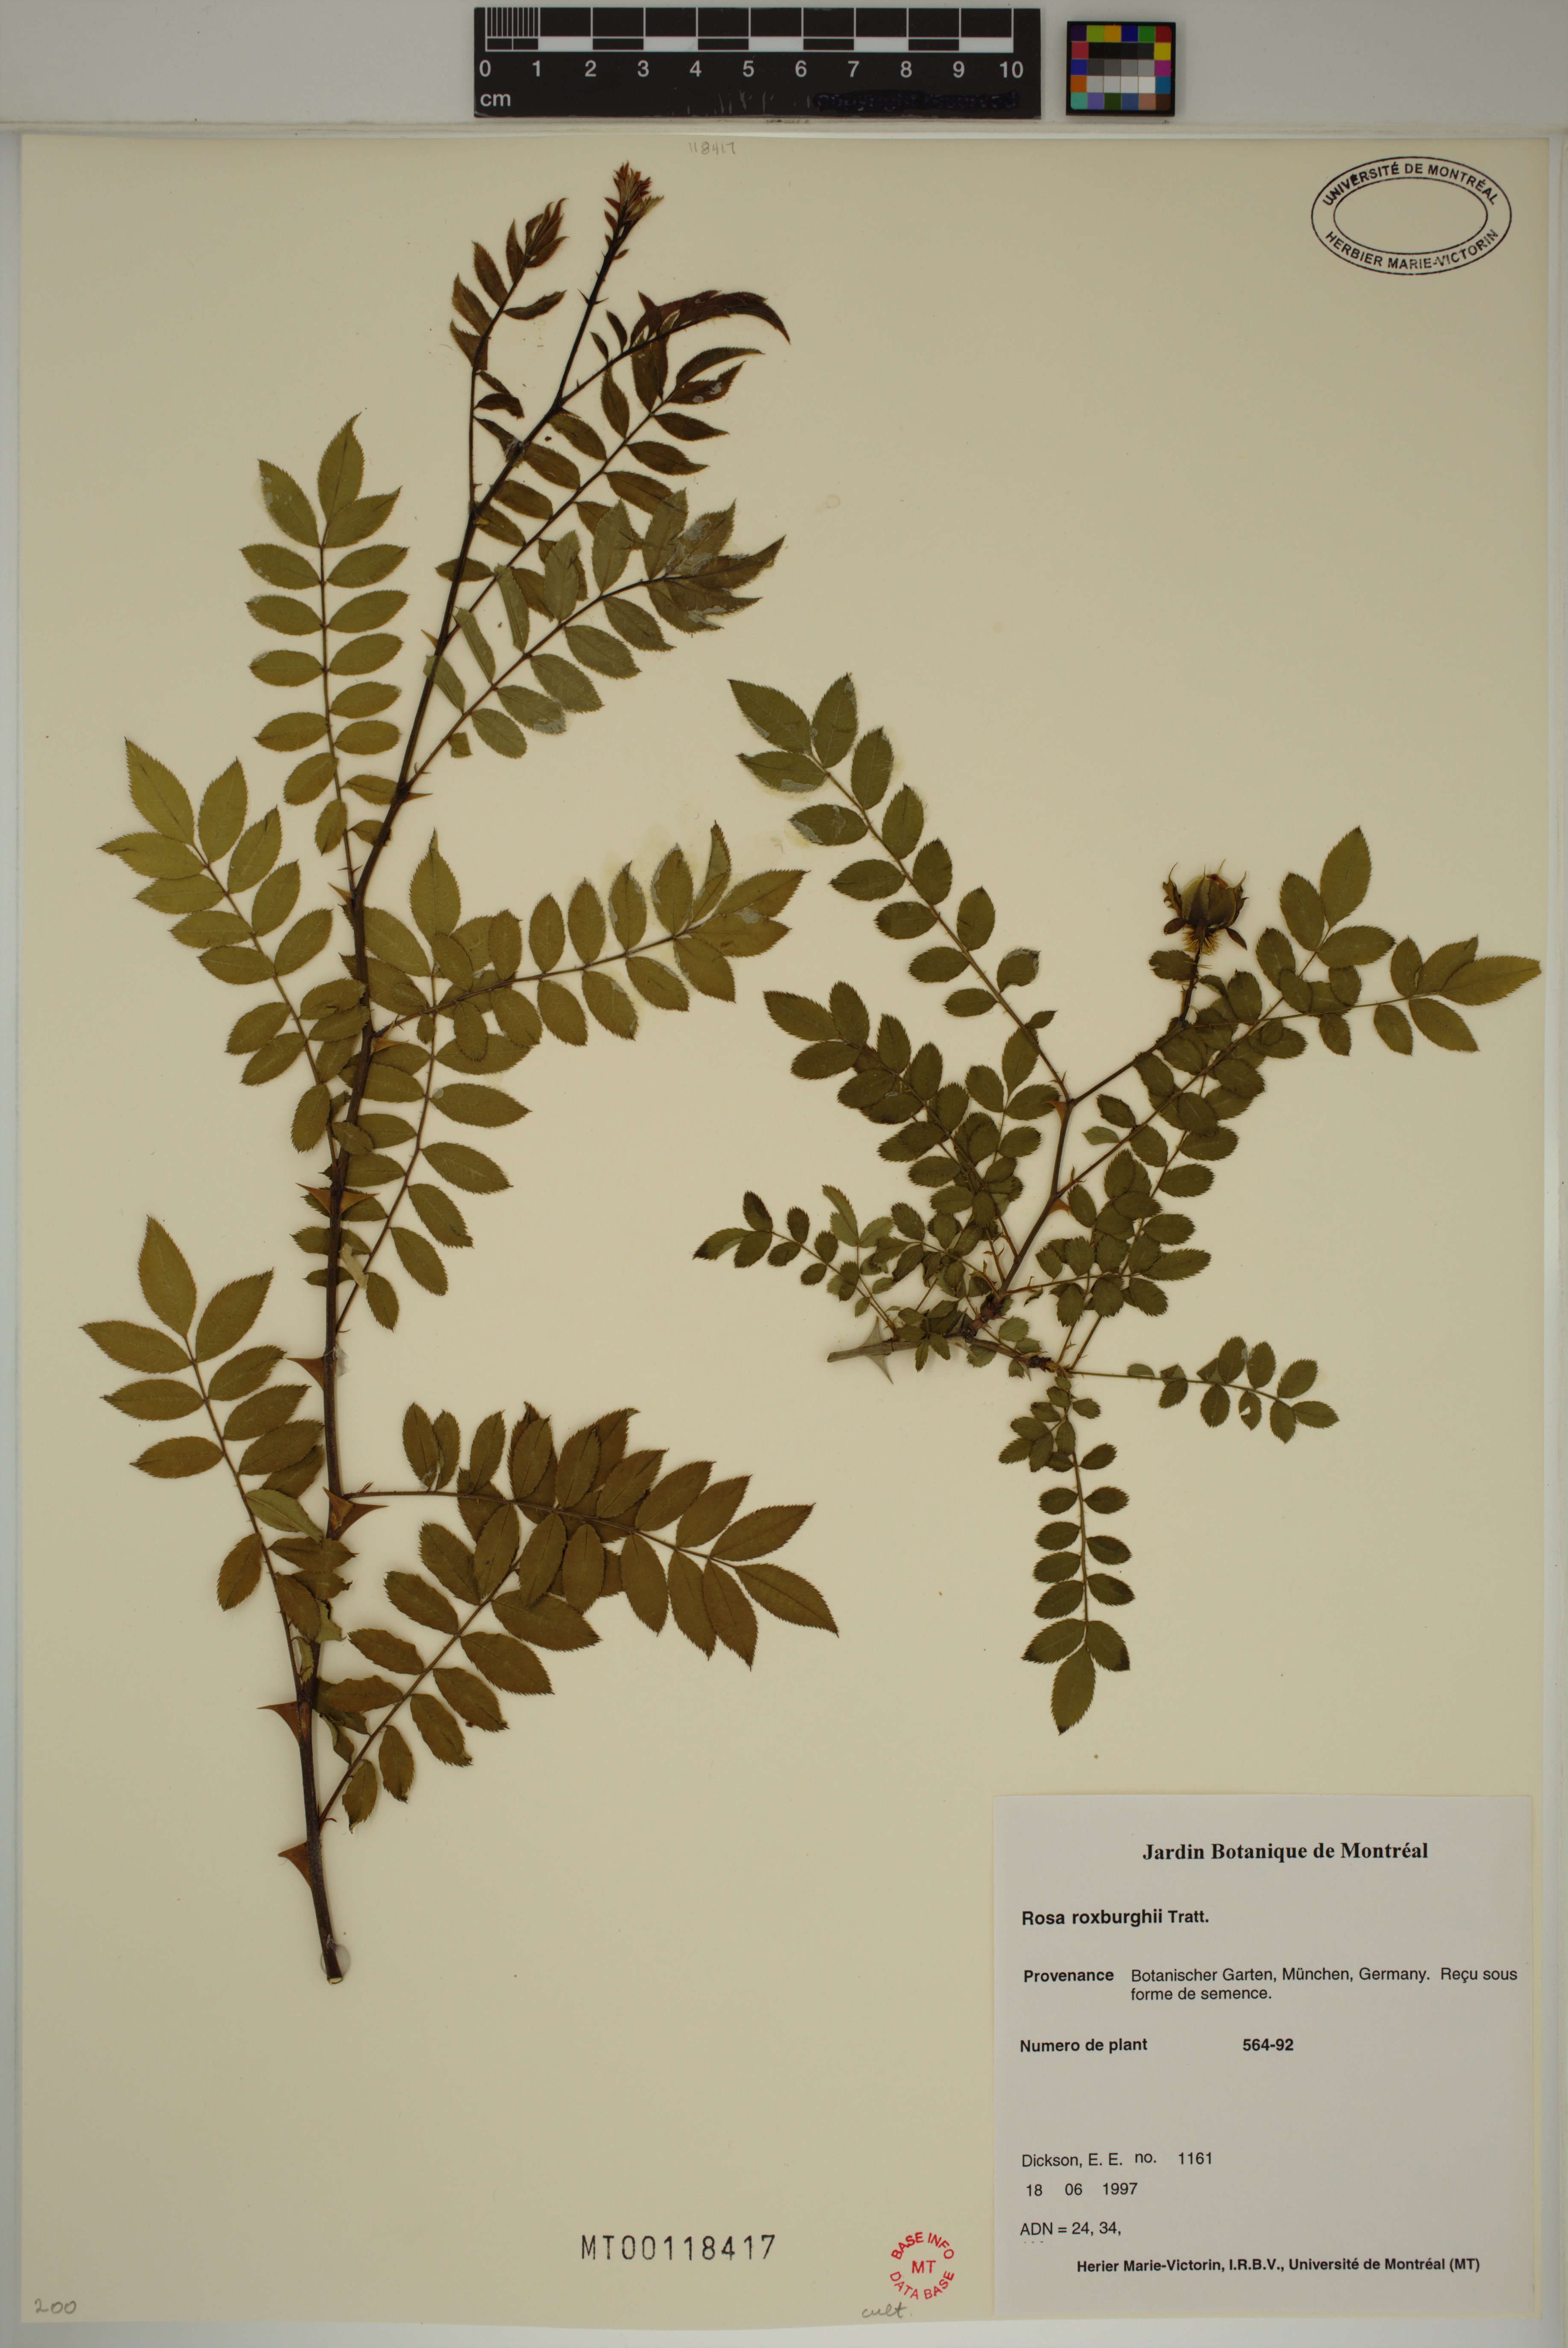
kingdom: Plantae
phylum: Tracheophyta
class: Magnoliopsida
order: Rosales
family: Rosaceae
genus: Rosa
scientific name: Rosa roxburghii
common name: Chinquapin rose
